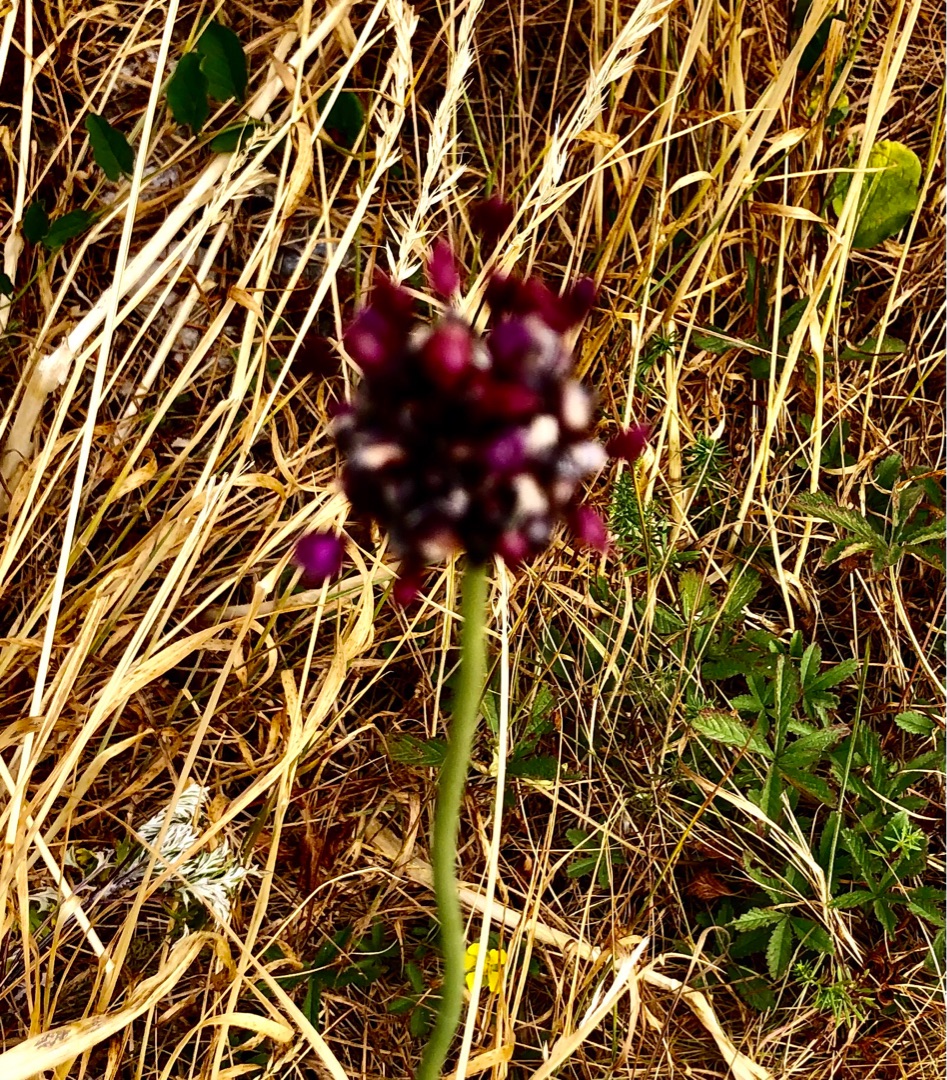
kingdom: Plantae
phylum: Tracheophyta
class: Liliopsida
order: Asparagales
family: Amaryllidaceae
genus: Allium
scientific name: Allium scorodoprasum
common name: Skov-løg
